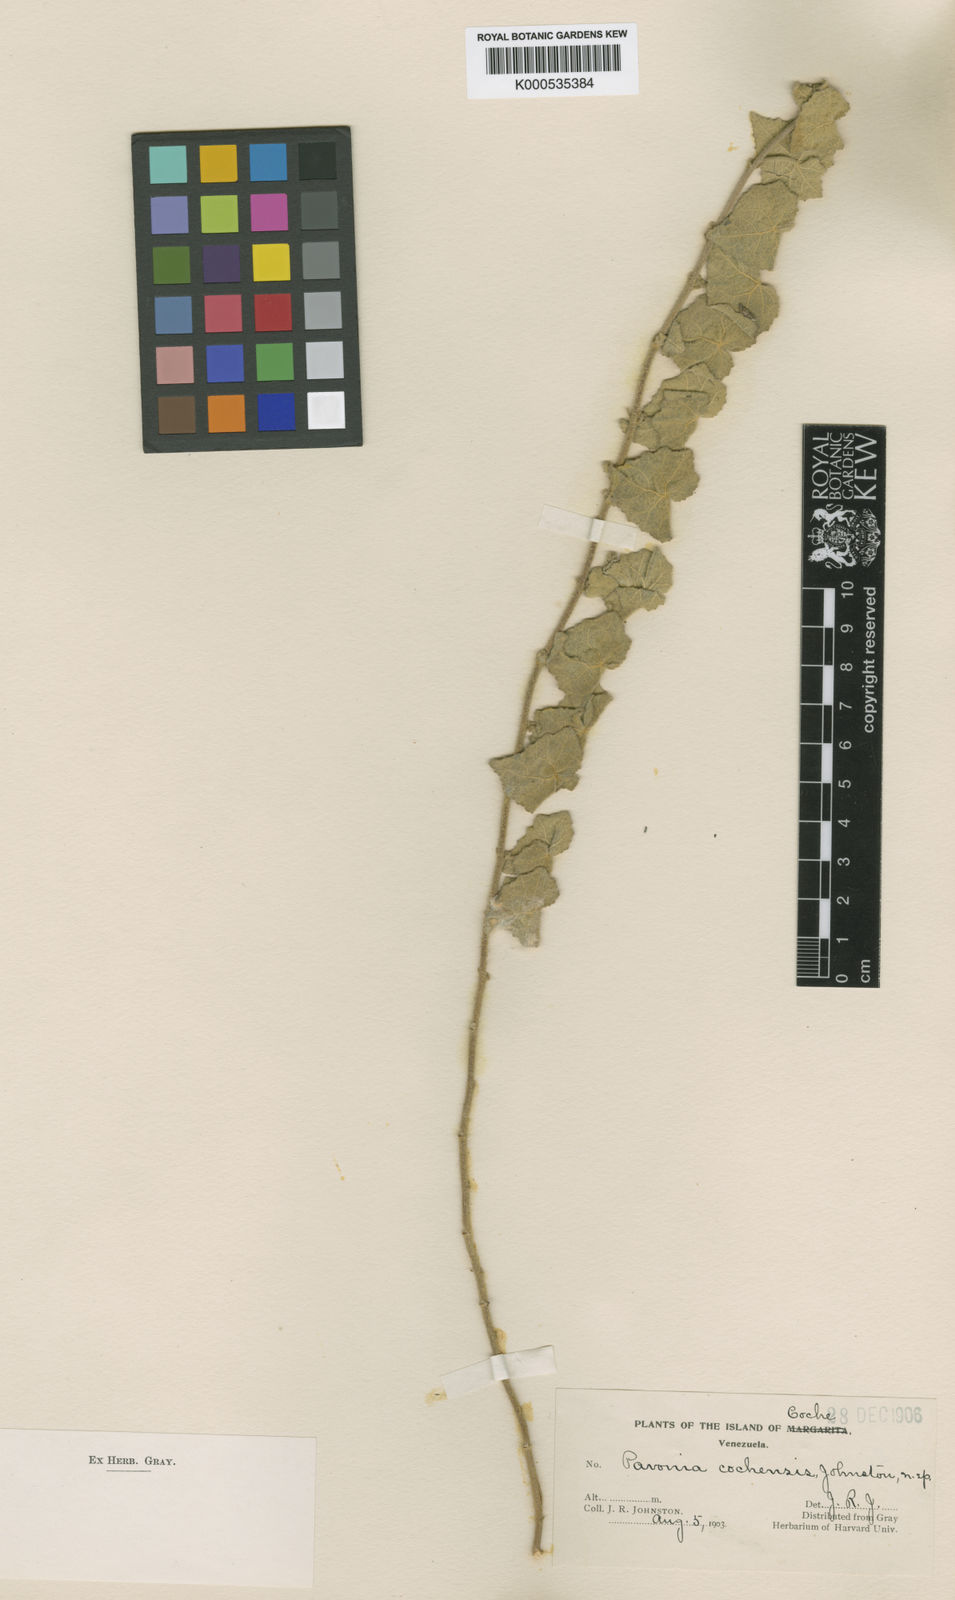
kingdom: Plantae
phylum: Tracheophyta
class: Magnoliopsida
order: Malvales
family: Malvaceae
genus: Pavonia
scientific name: Pavonia cochensis
